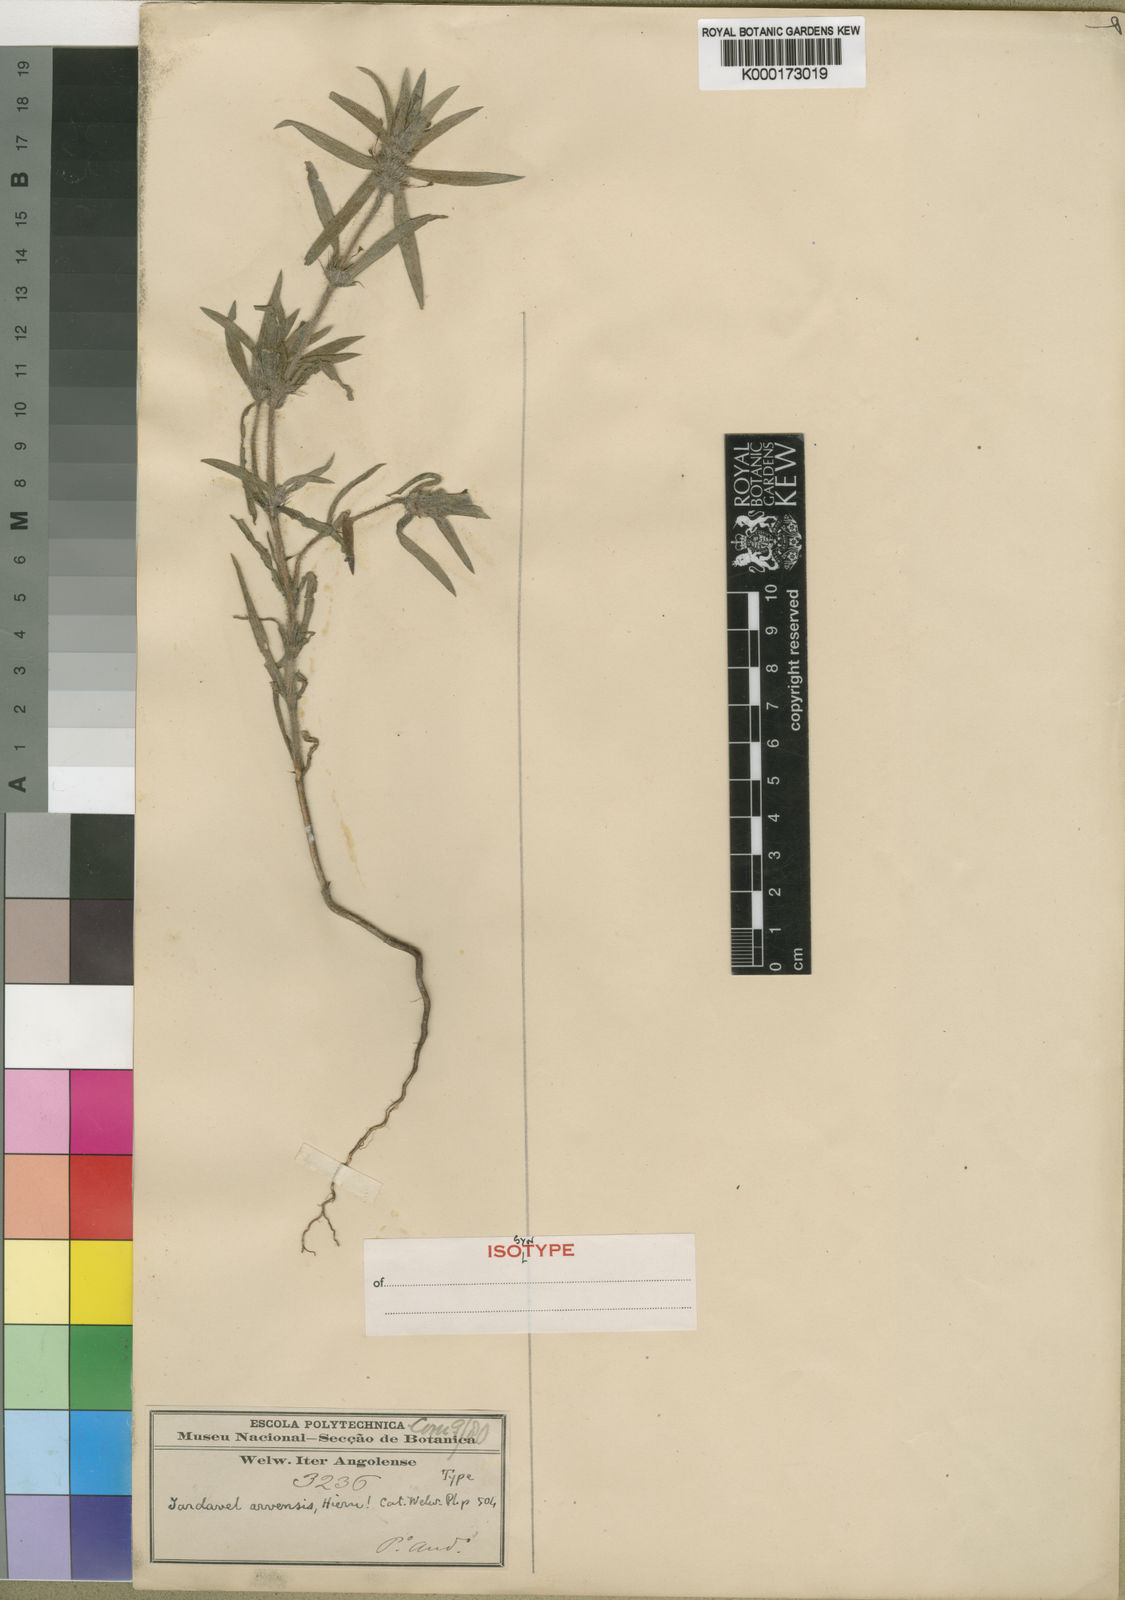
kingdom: Plantae
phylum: Tracheophyta
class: Magnoliopsida
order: Gentianales
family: Rubiaceae
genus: Spermacoce
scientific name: Spermacoce arvensis
